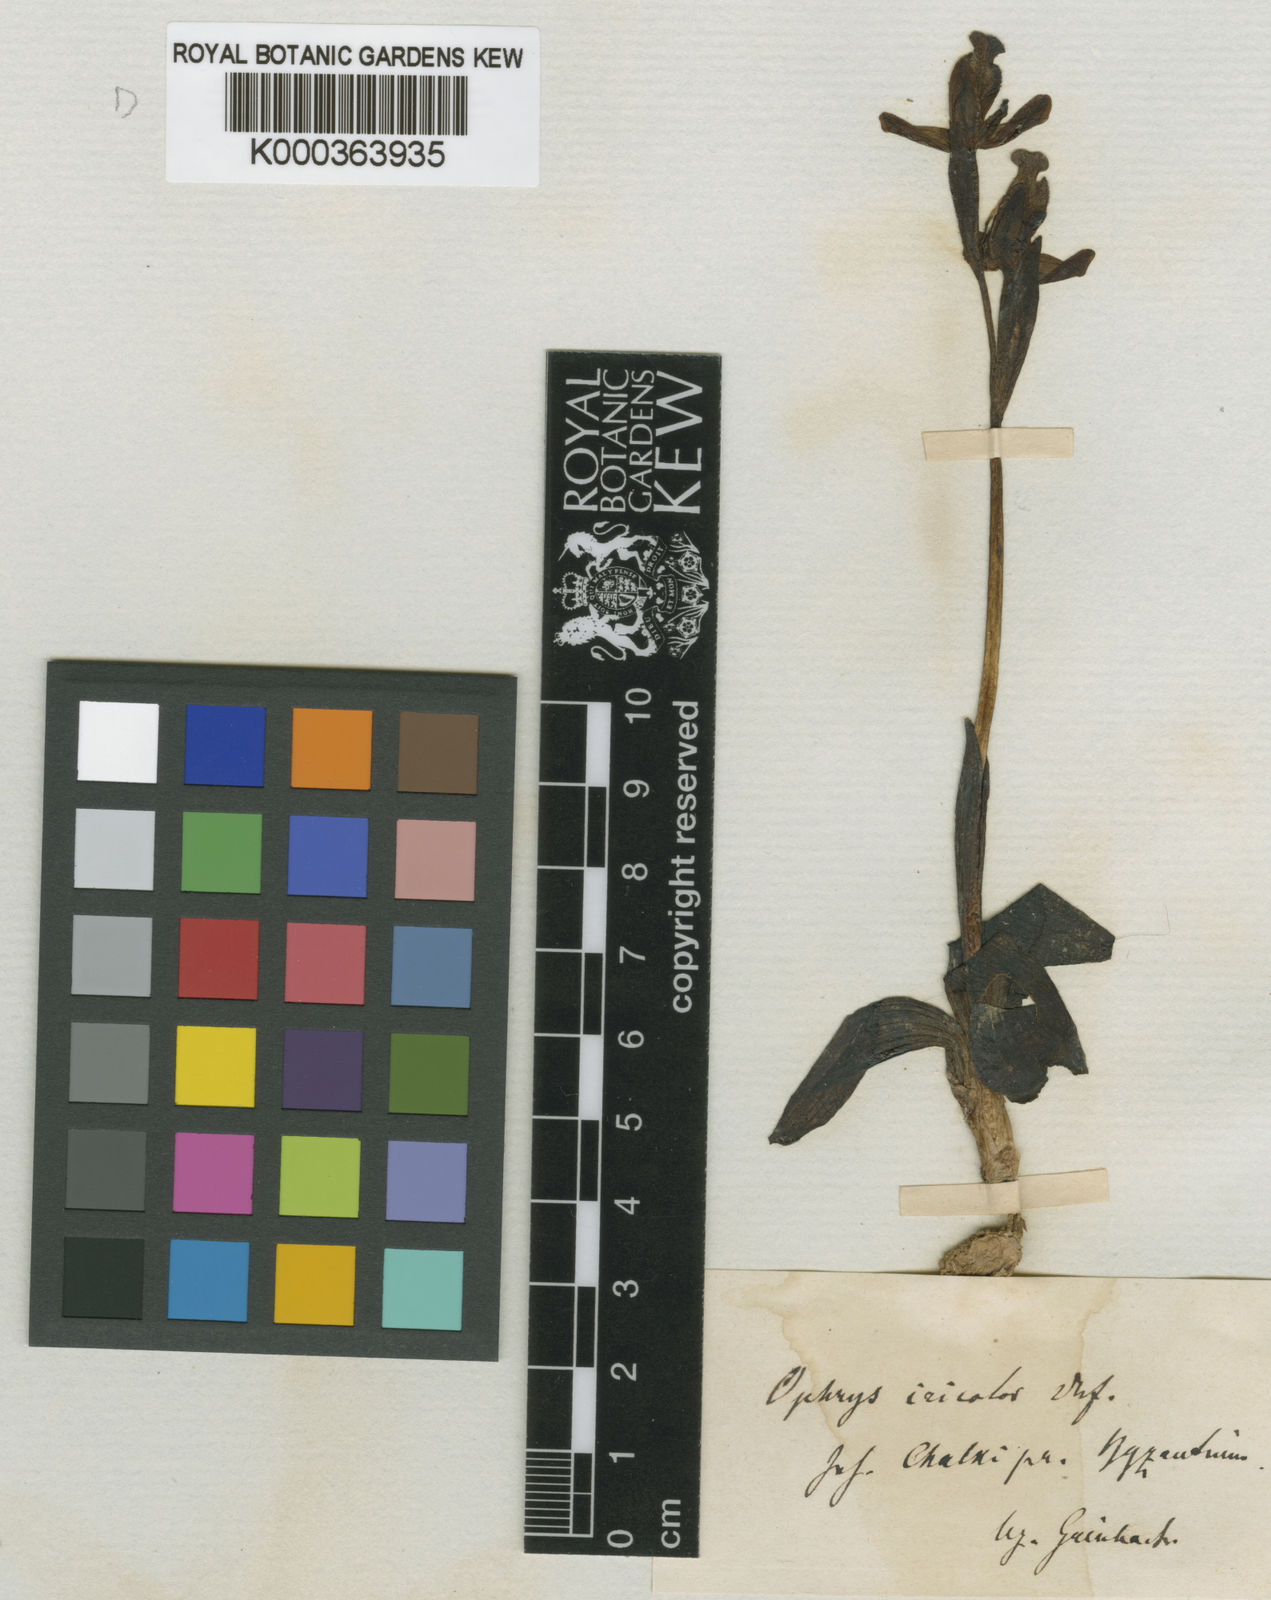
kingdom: Plantae
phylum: Tracheophyta
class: Liliopsida
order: Asparagales
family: Orchidaceae
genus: Ophrys
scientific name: Ophrys fusca
